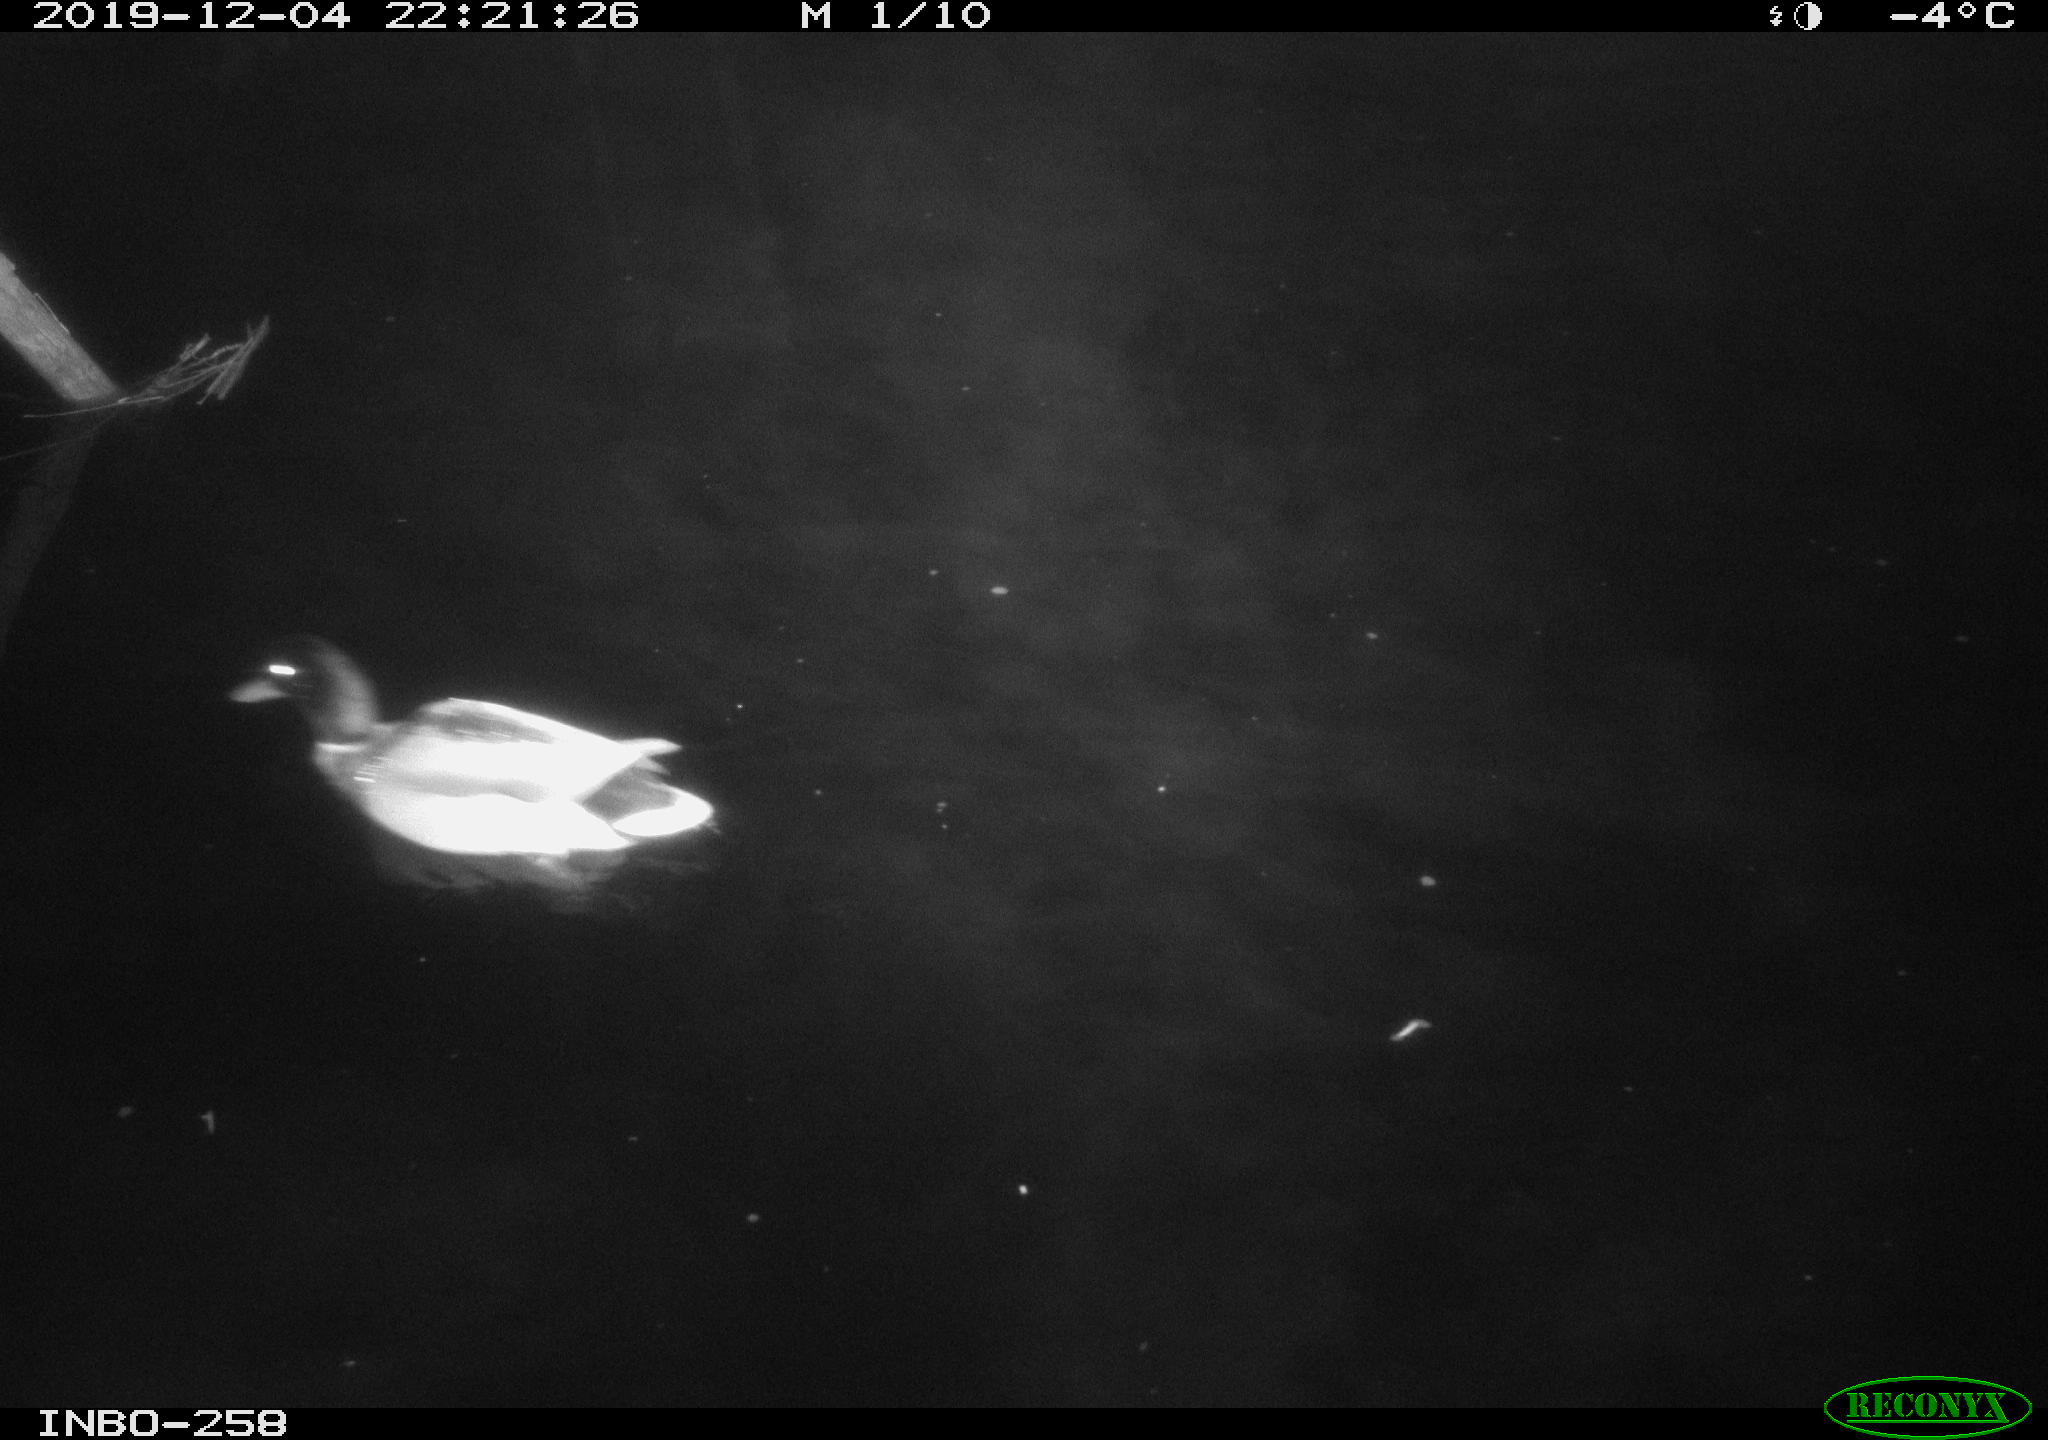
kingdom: Animalia
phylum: Chordata
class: Aves
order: Anseriformes
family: Anatidae
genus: Anas
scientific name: Anas platyrhynchos
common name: Mallard
